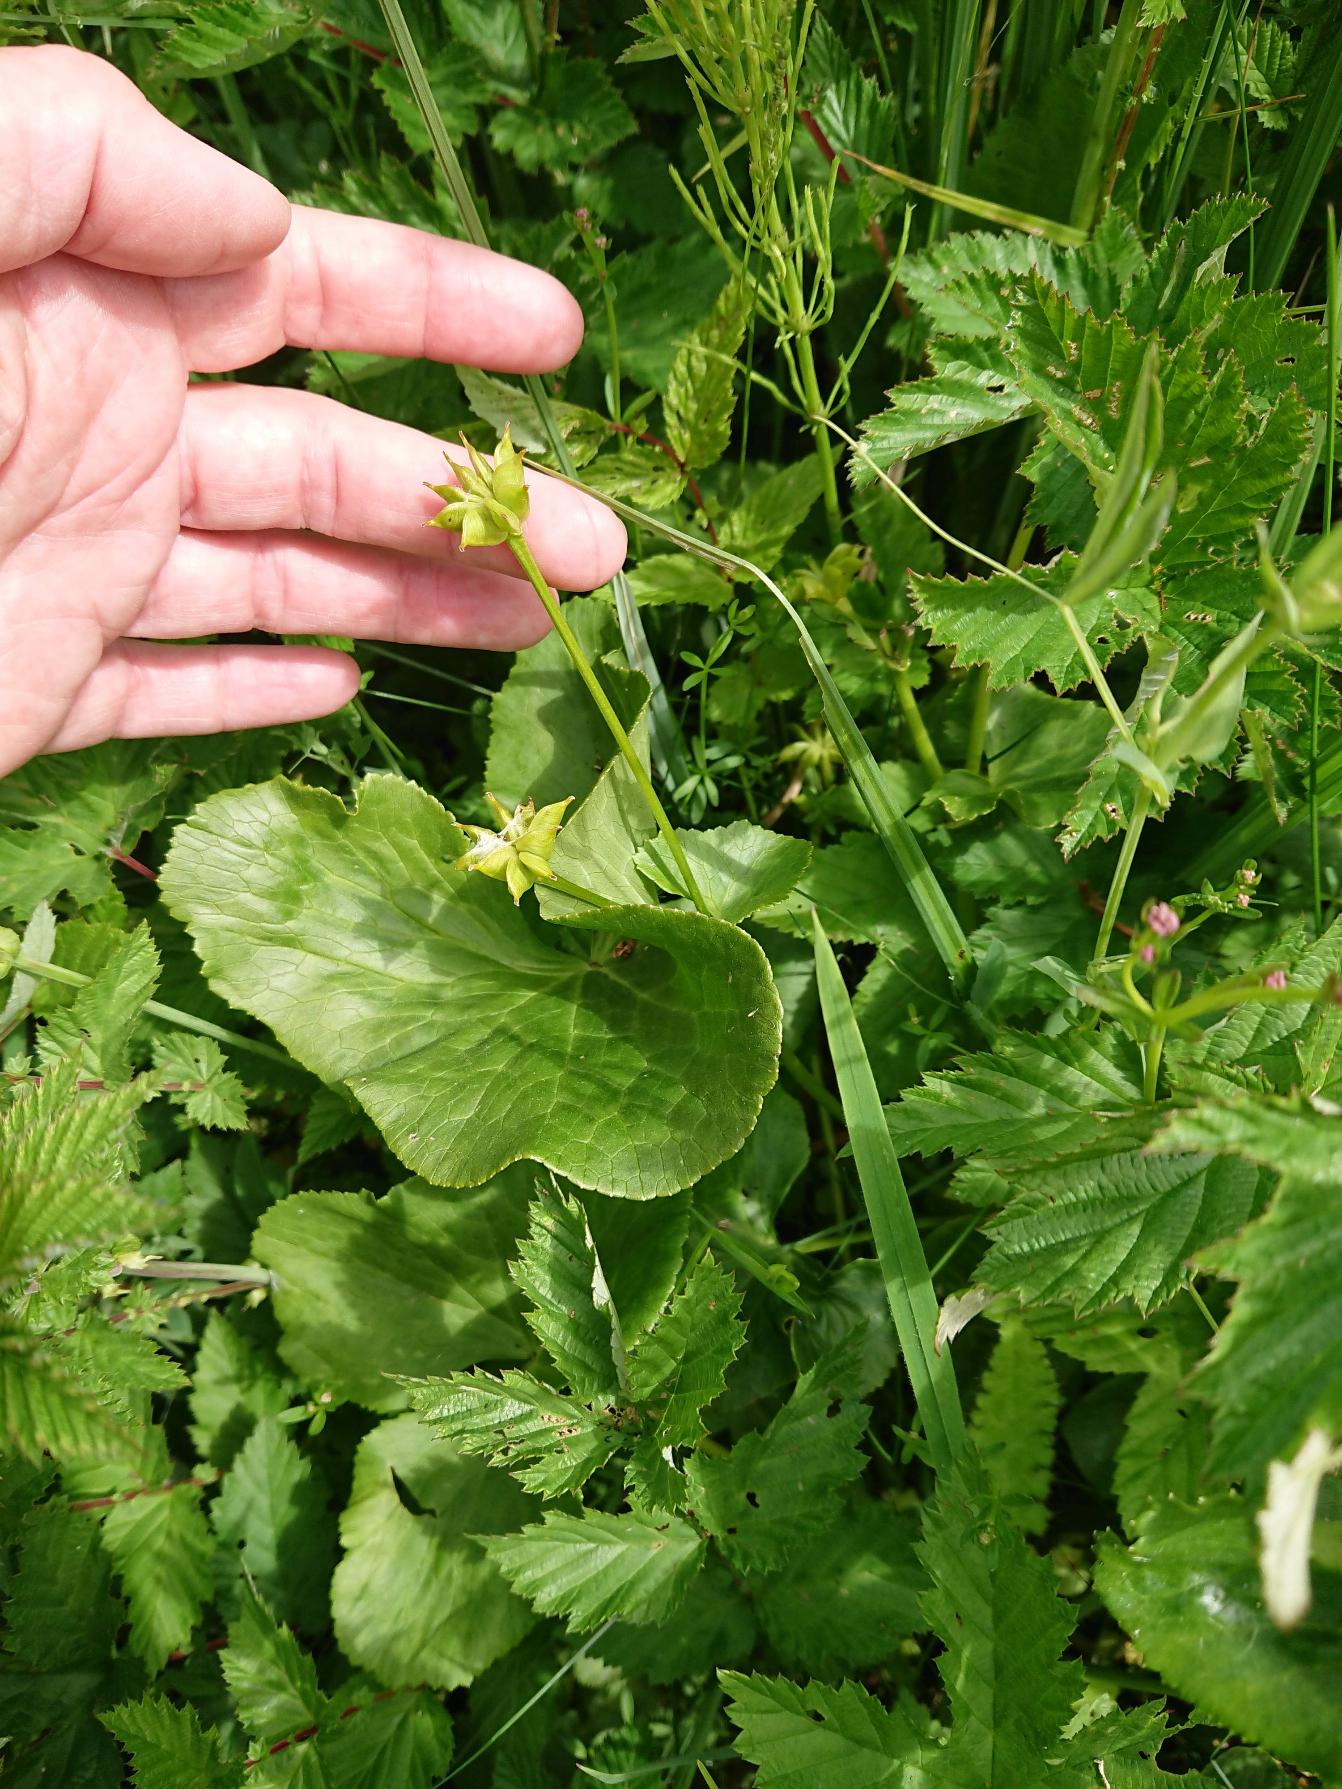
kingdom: Plantae
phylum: Tracheophyta
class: Magnoliopsida
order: Ranunculales
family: Ranunculaceae
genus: Caltha
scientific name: Caltha palustris
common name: Eng-kabbeleje (underart)
